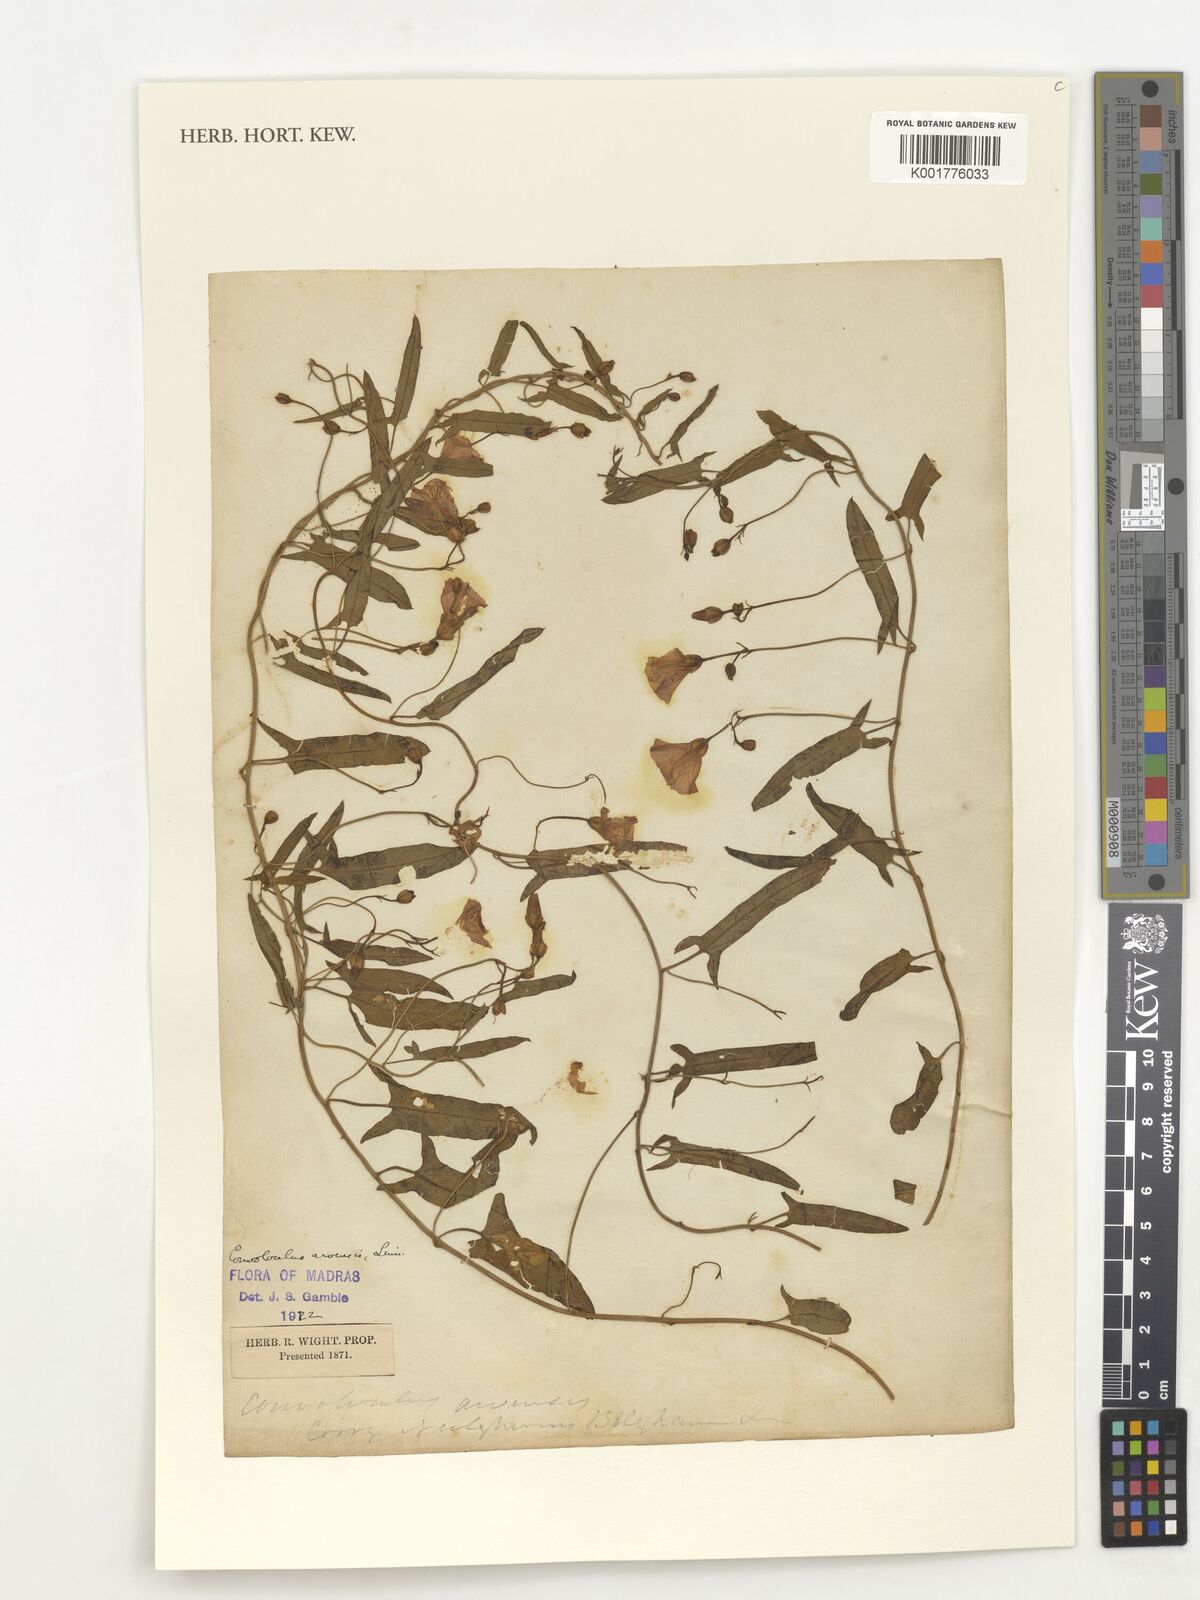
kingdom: Plantae
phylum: Tracheophyta
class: Magnoliopsida
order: Solanales
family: Convolvulaceae
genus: Convolvulus
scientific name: Convolvulus arvensis
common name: Field bindweed
